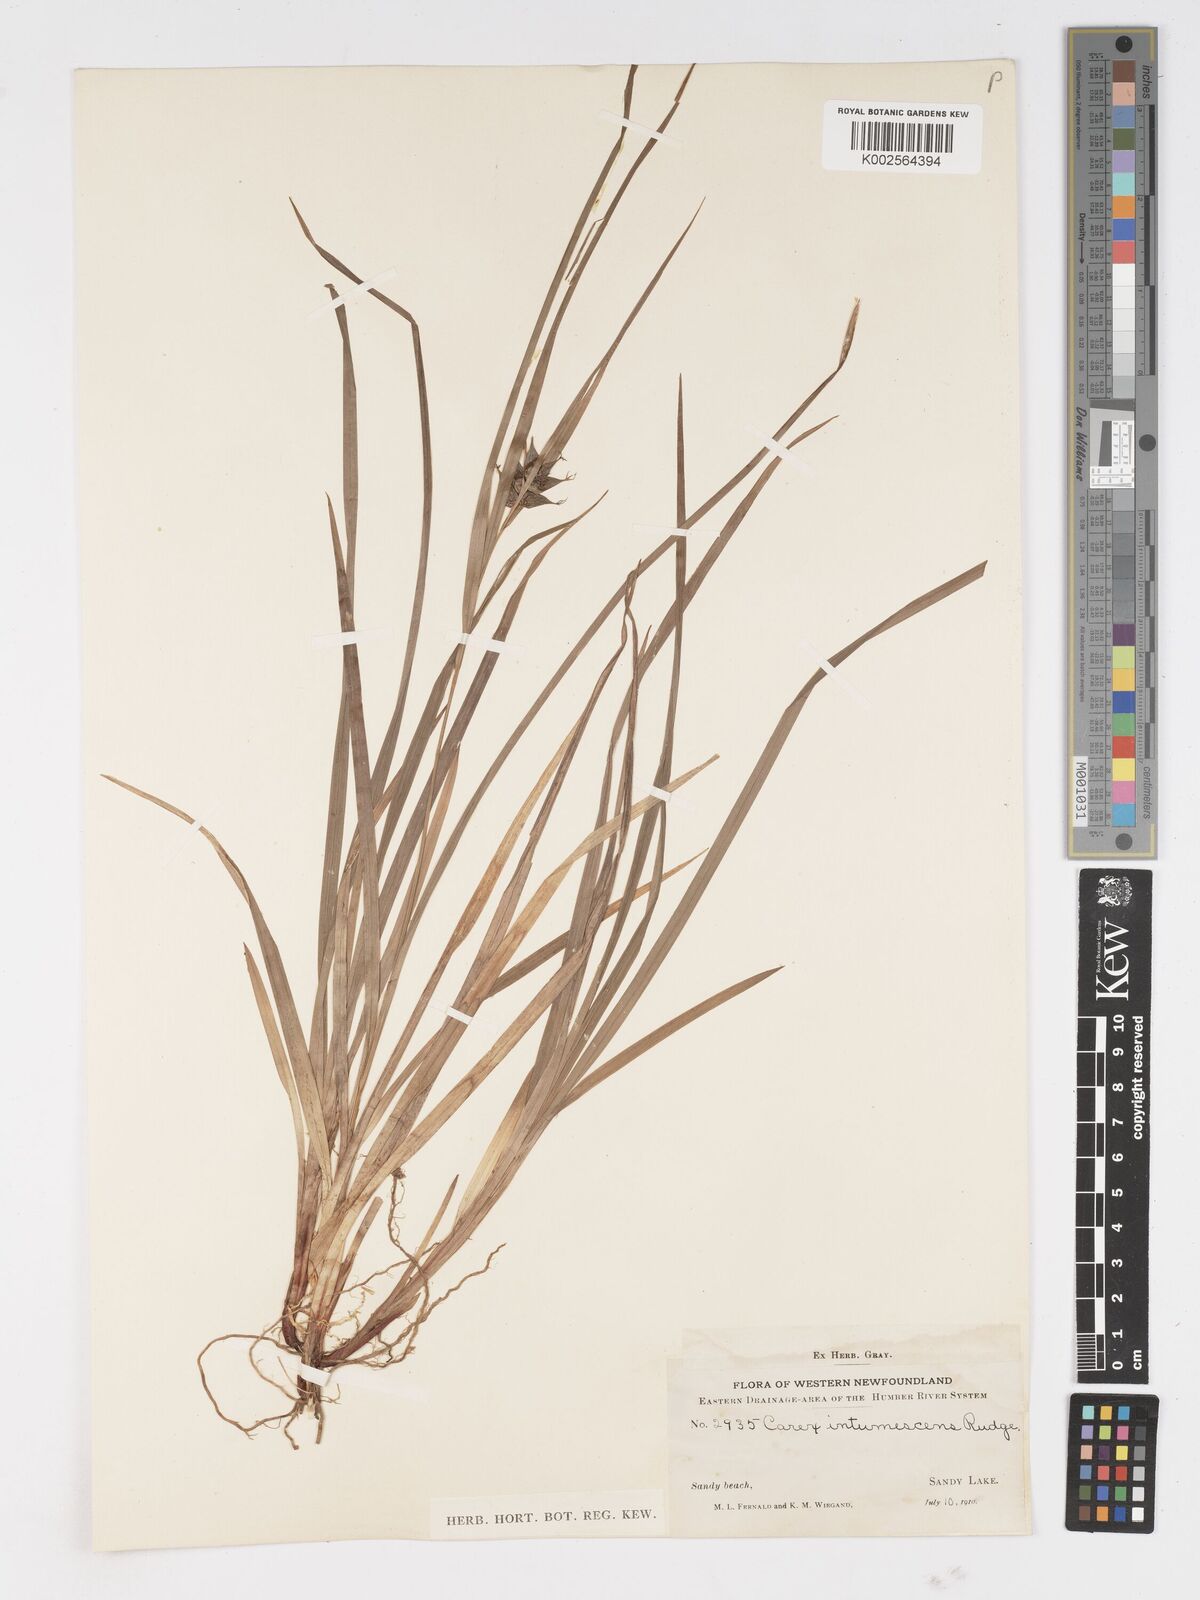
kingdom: Plantae
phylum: Tracheophyta
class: Liliopsida
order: Poales
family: Cyperaceae
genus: Carex
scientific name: Carex intumescens
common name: Greater bladder sedge
